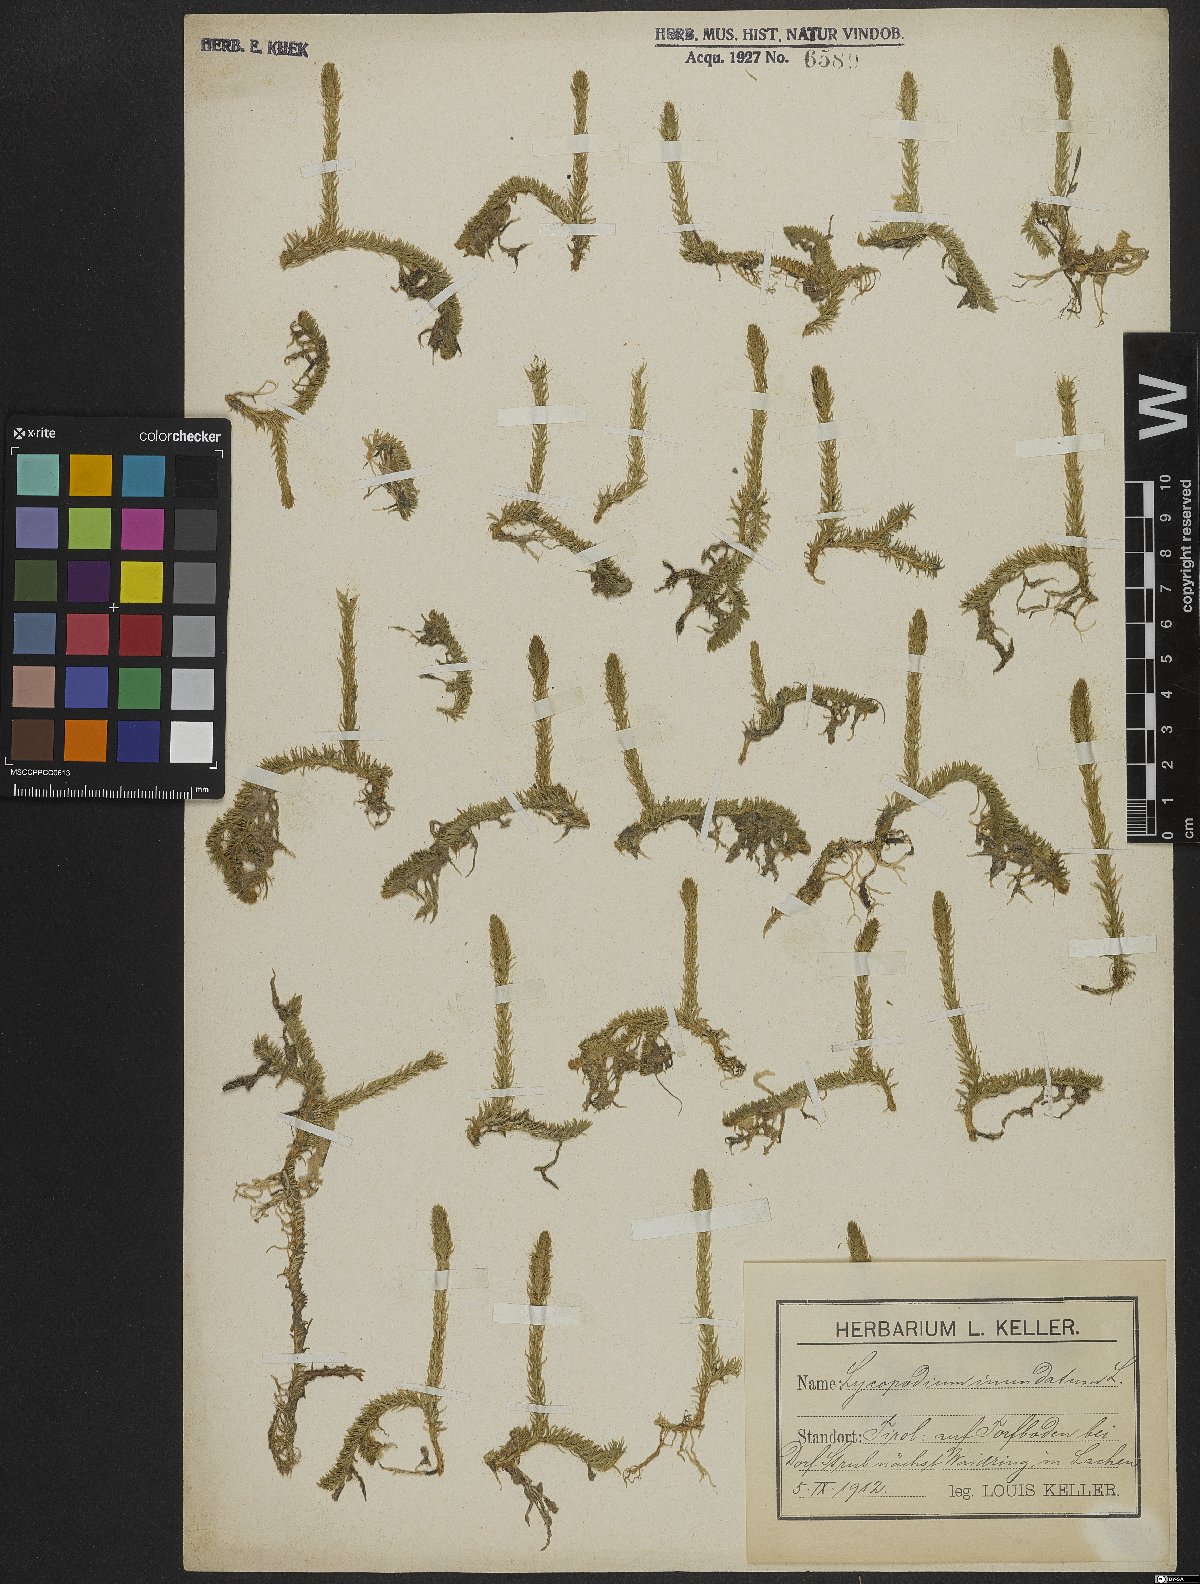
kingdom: Plantae
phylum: Tracheophyta
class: Lycopodiopsida
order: Lycopodiales
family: Lycopodiaceae
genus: Lycopodiella
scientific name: Lycopodiella inundata
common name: Marsh clubmoss
